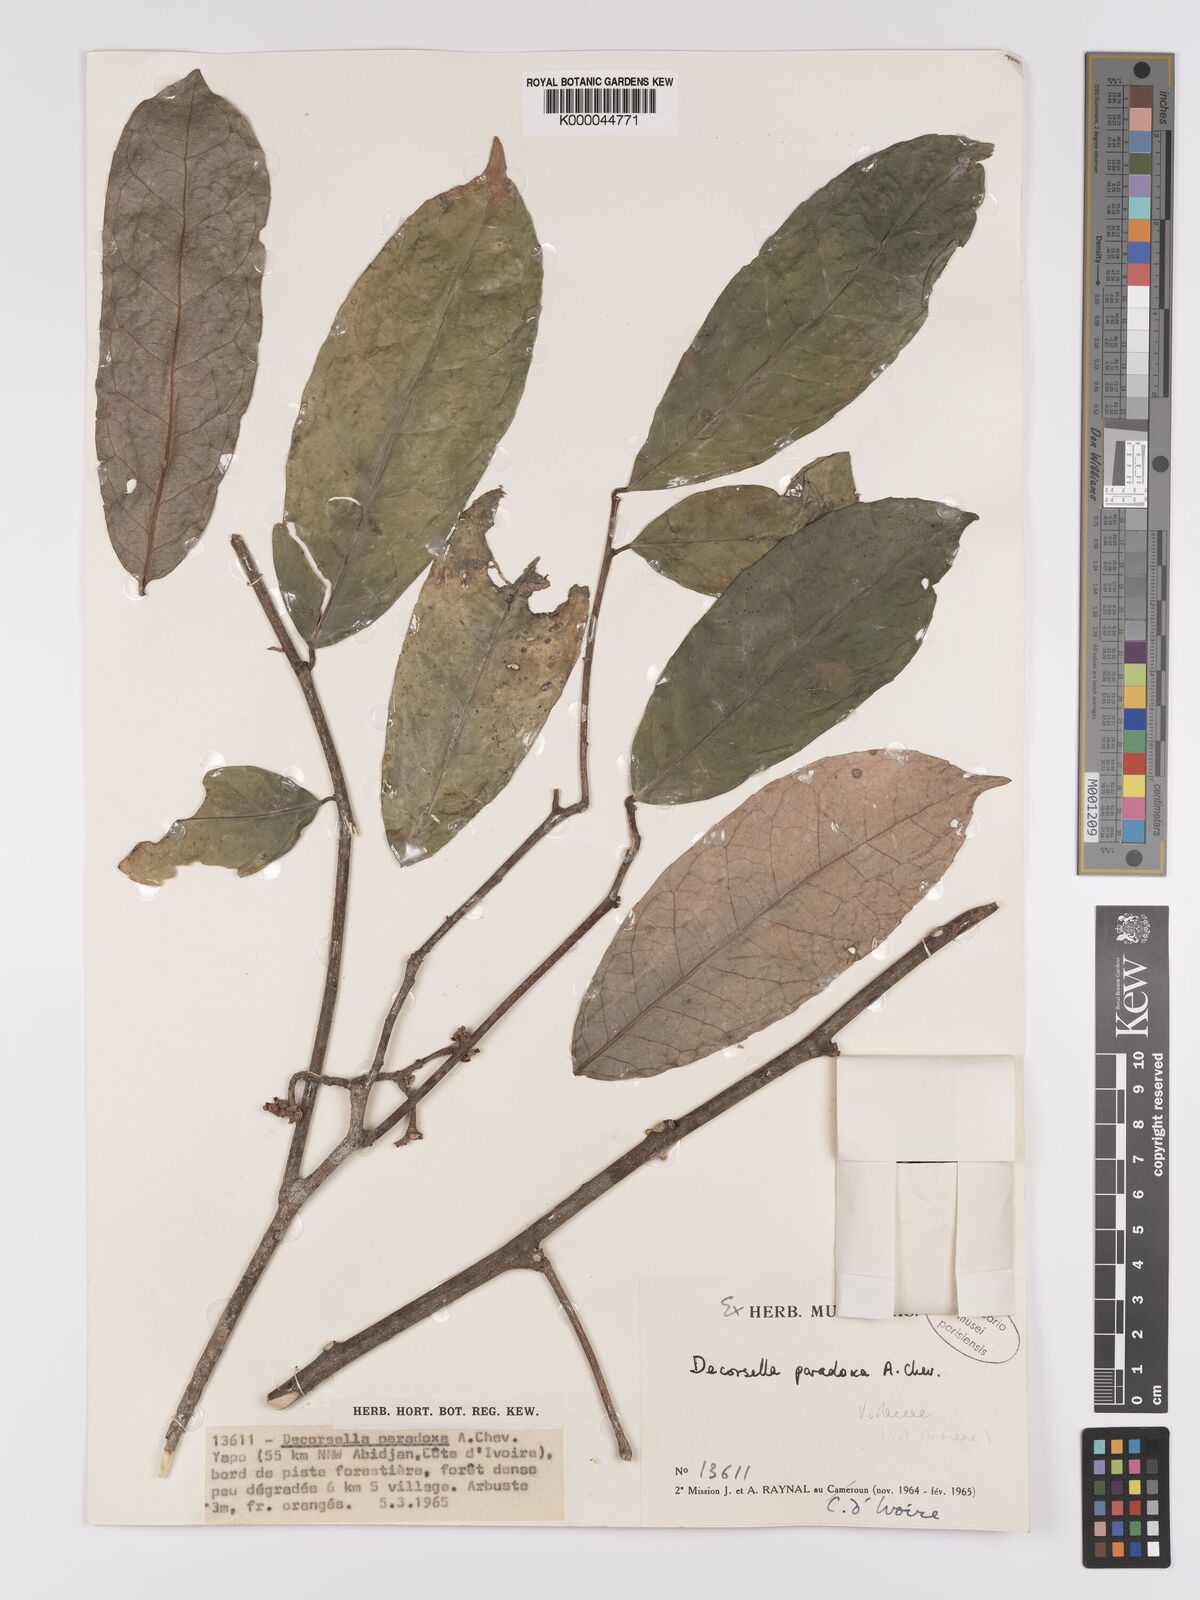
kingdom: Plantae
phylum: Tracheophyta
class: Magnoliopsida
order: Malpighiales
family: Violaceae
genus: Decorsella
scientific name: Decorsella paradoxa
